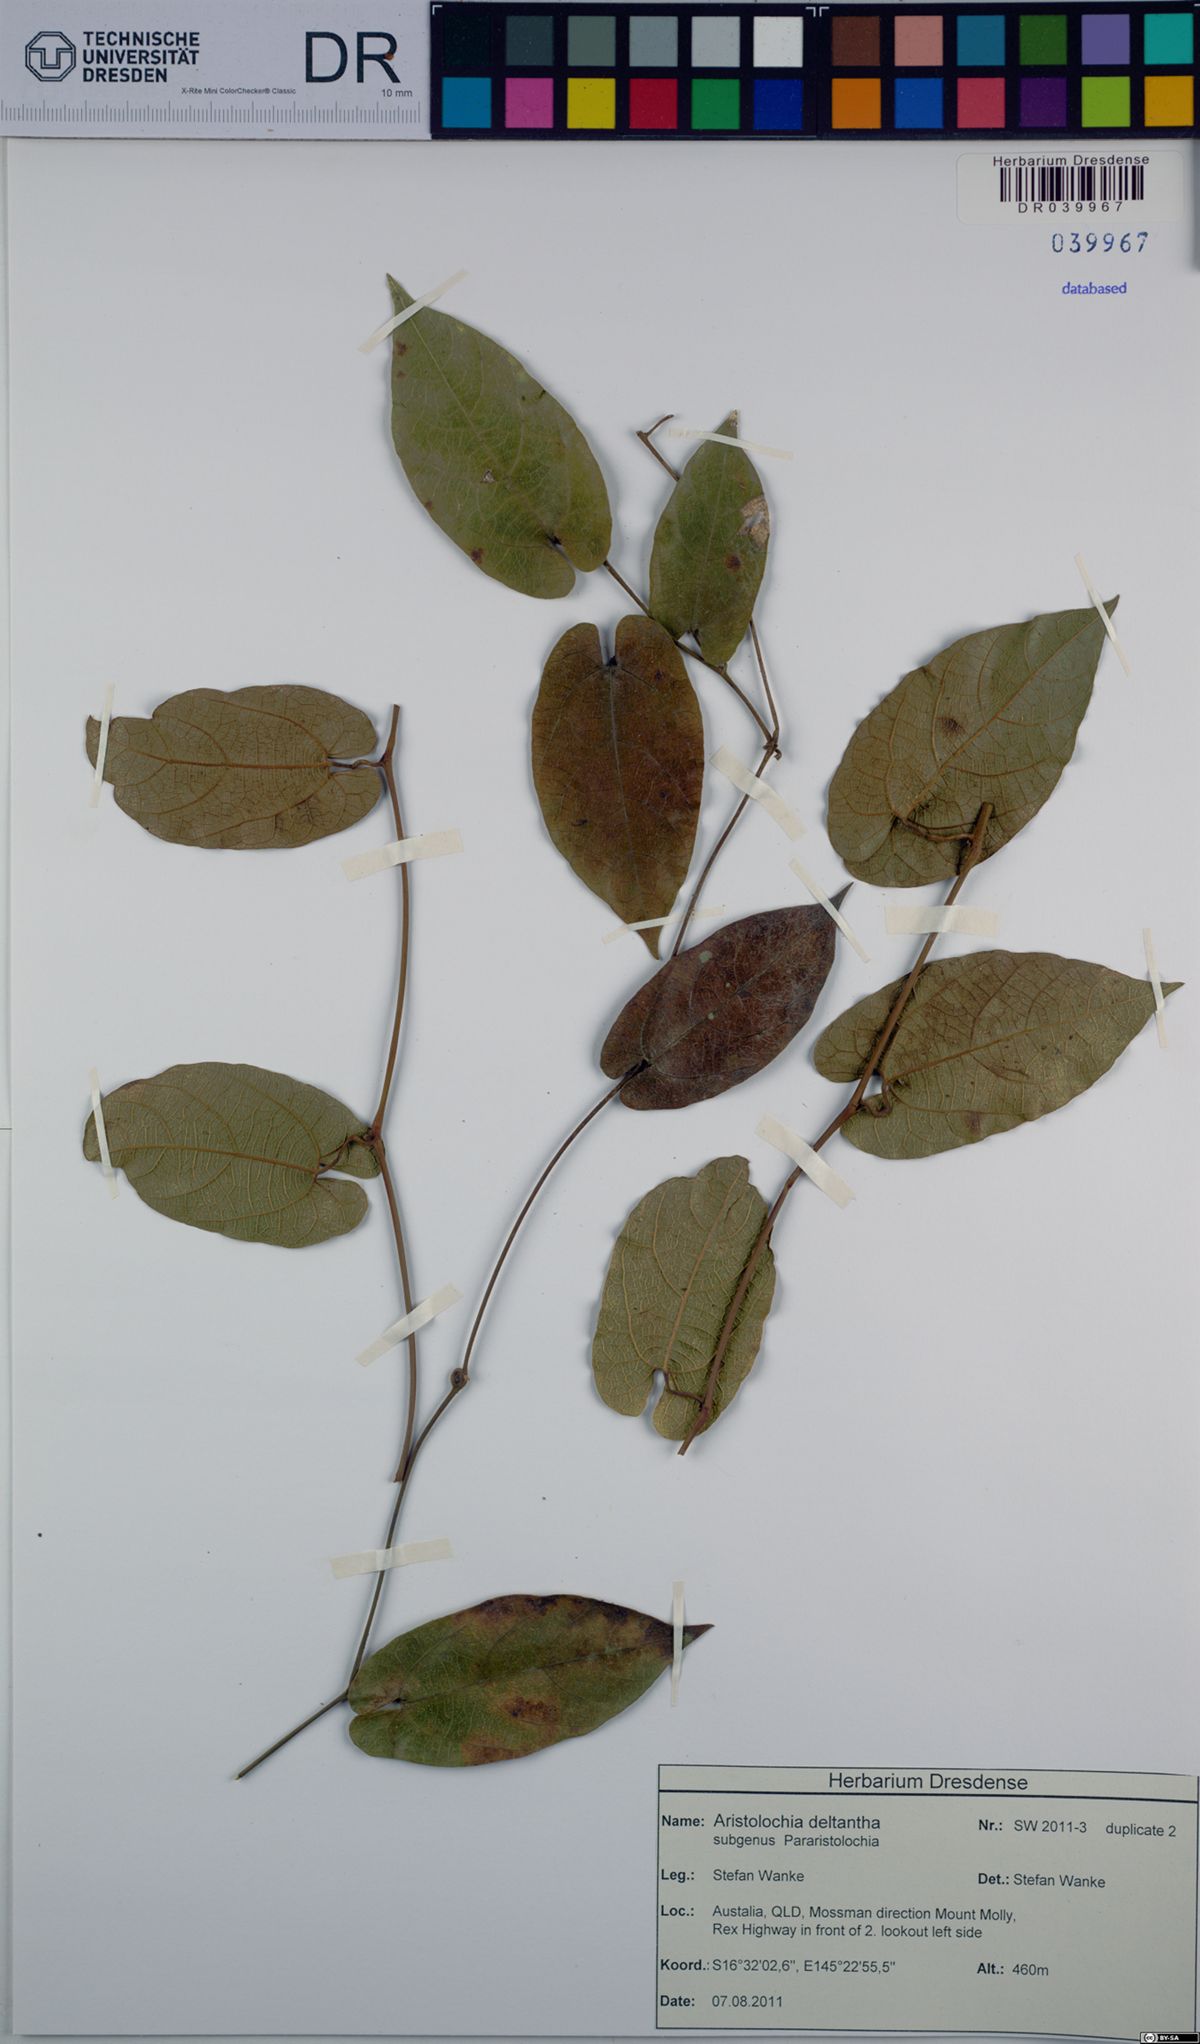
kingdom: Plantae
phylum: Tracheophyta
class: Magnoliopsida
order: Piperales
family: Aristolochiaceae
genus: Aristolochia
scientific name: Aristolochia deltantha
